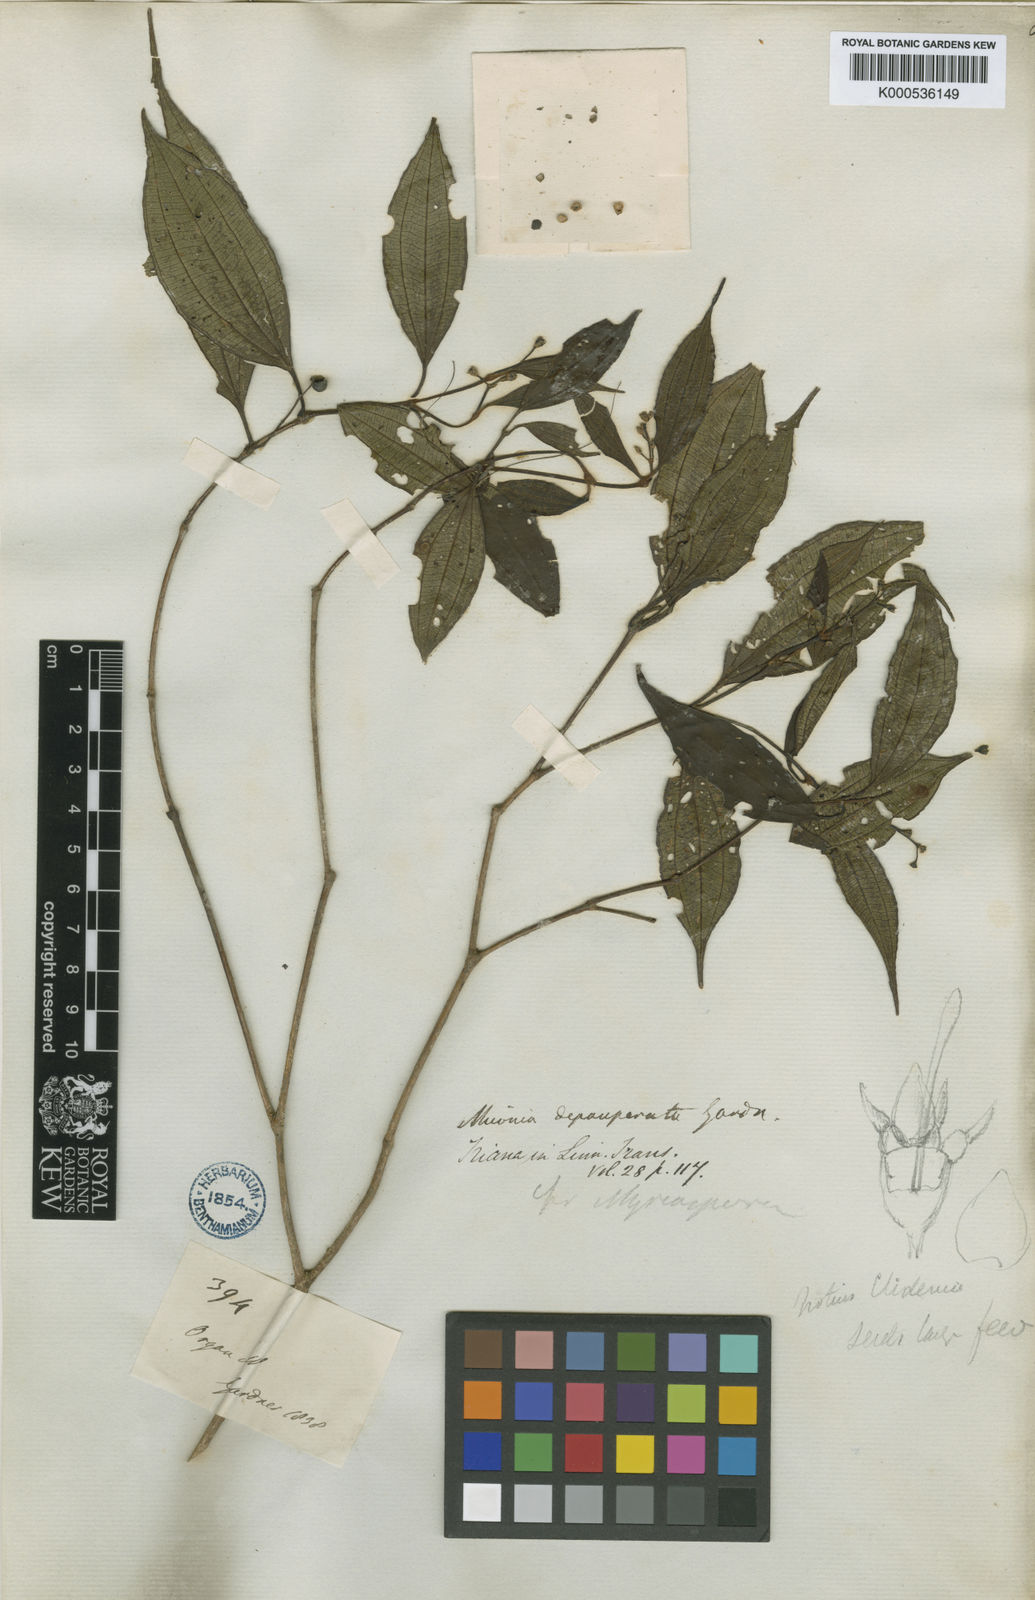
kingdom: Plantae
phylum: Tracheophyta
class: Magnoliopsida
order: Myrtales
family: Melastomataceae
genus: Miconia
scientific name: Miconia depauperata
